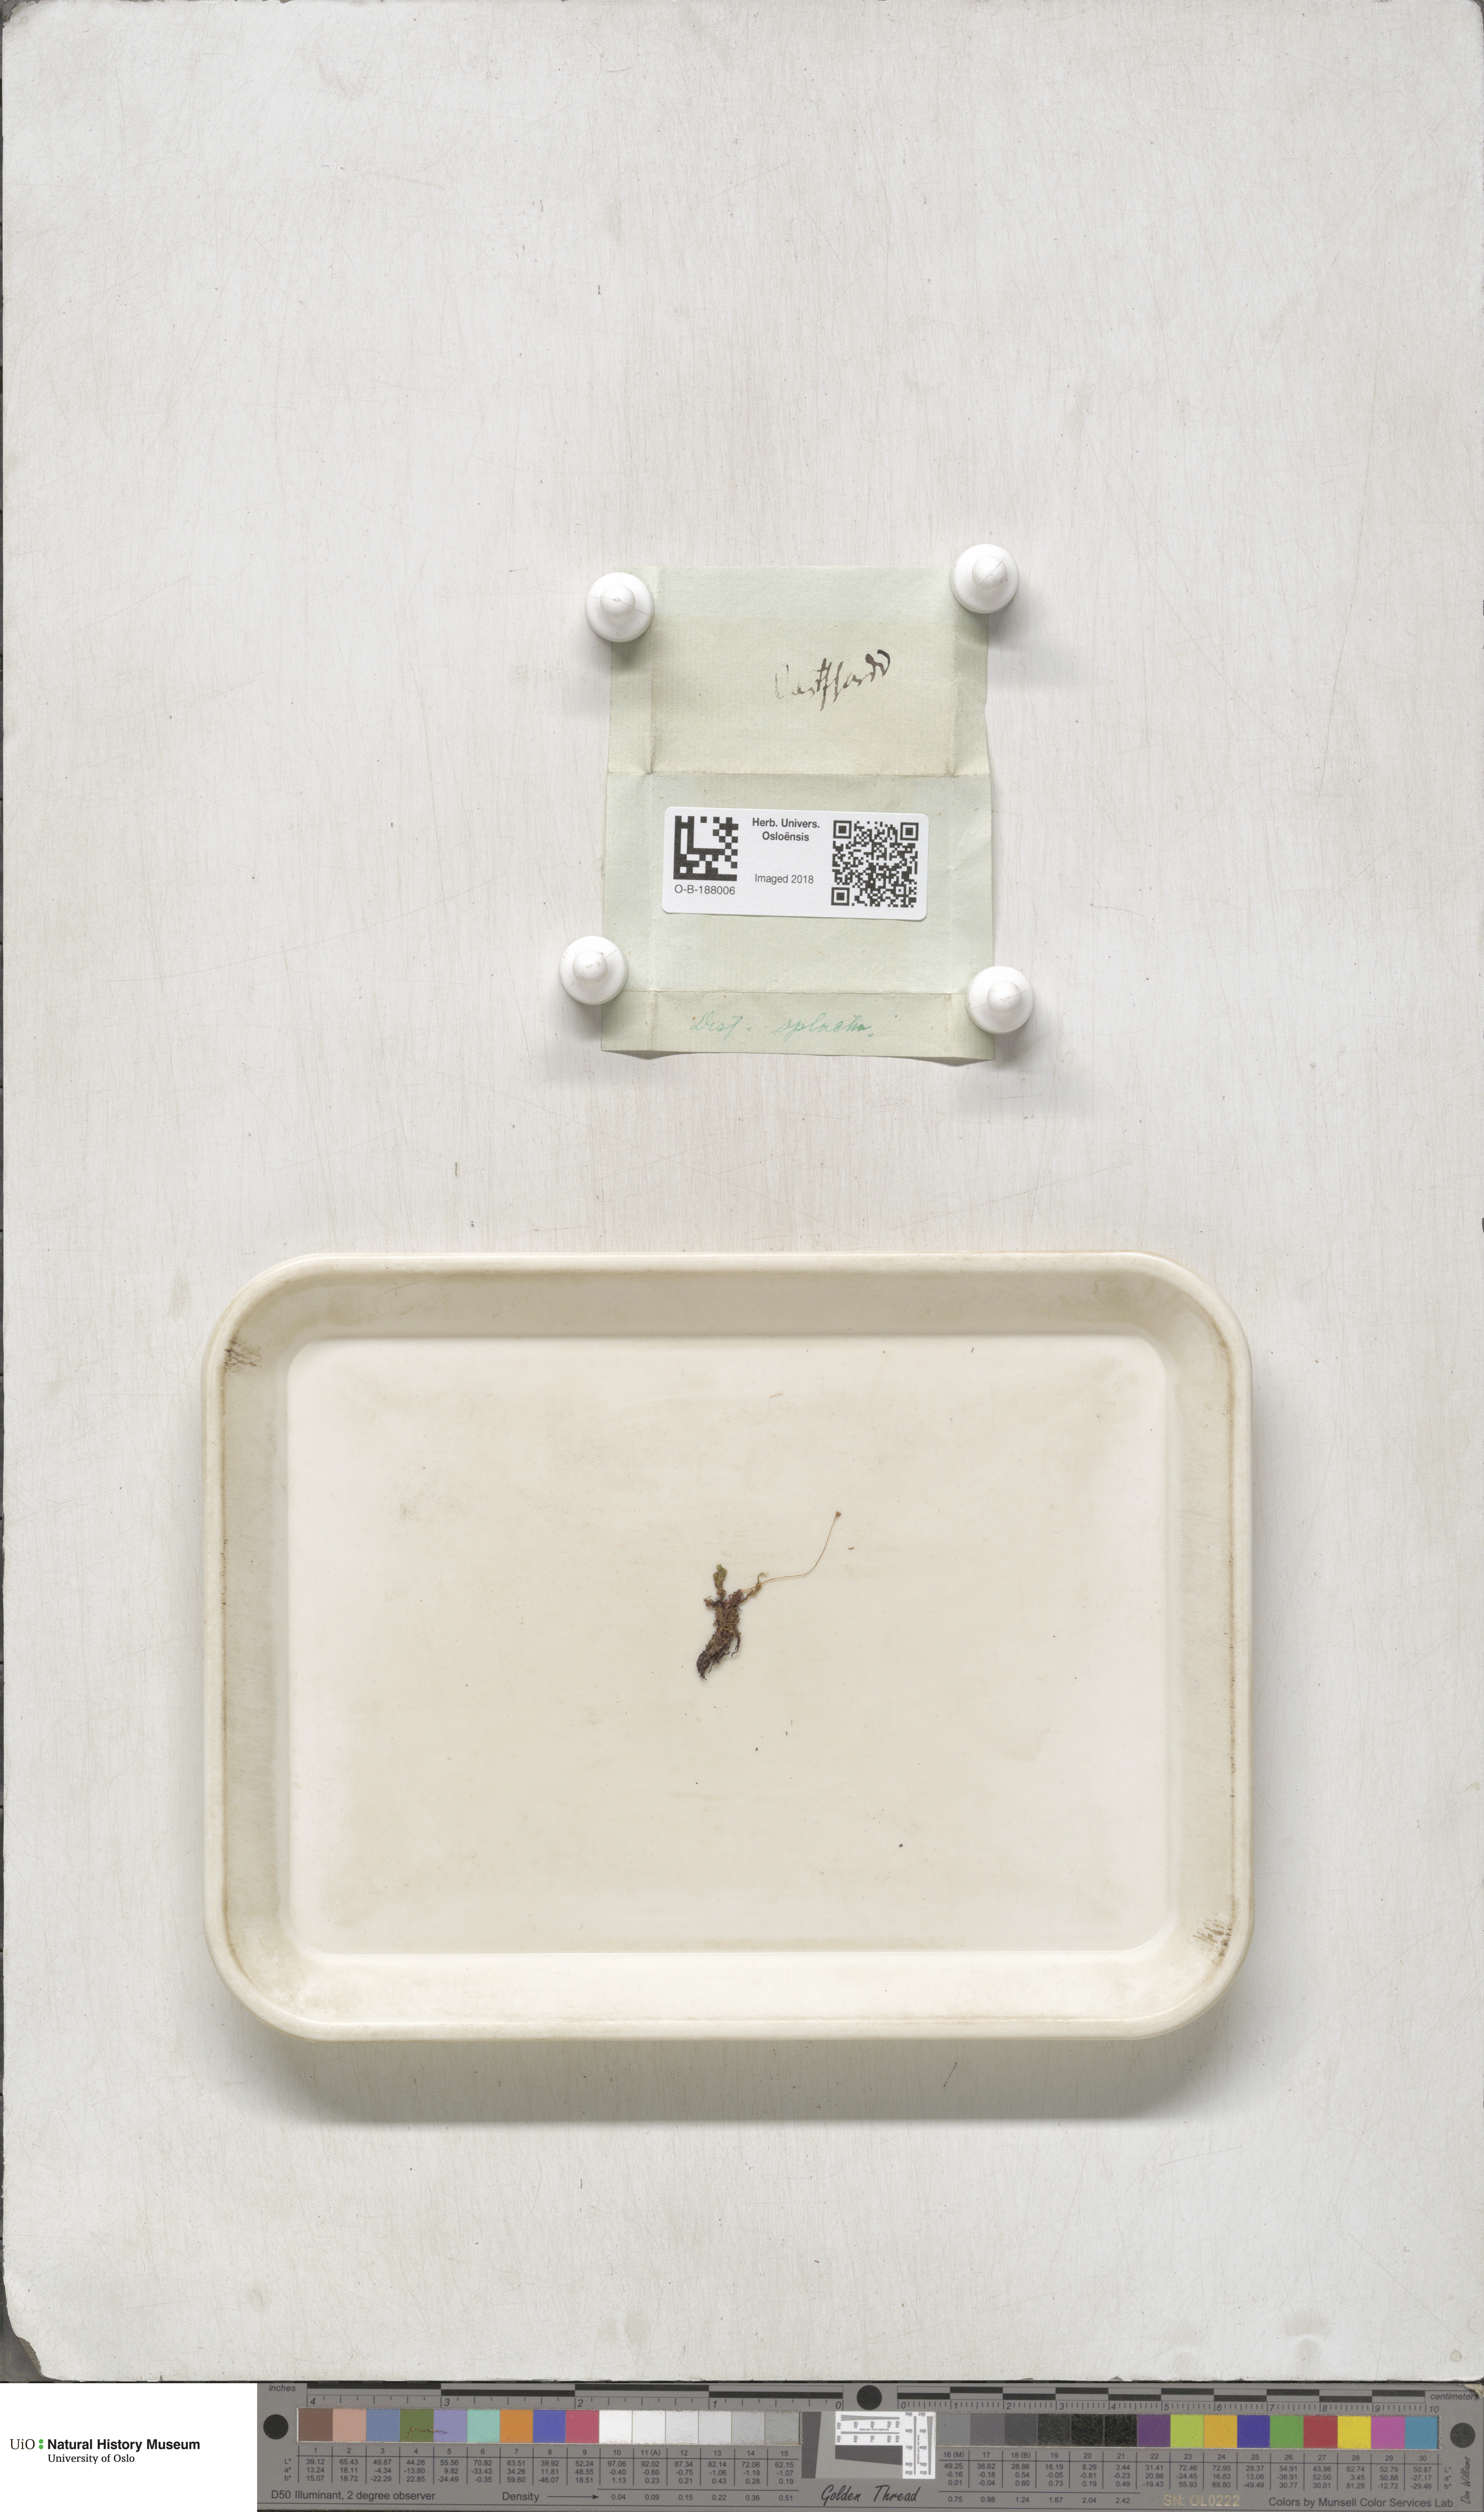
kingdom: Plantae
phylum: Bryophyta
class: Bryopsida
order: Splachnales
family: Splachnaceae
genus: Tayloria
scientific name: Tayloria serrata
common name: Serrate trumpet moss
